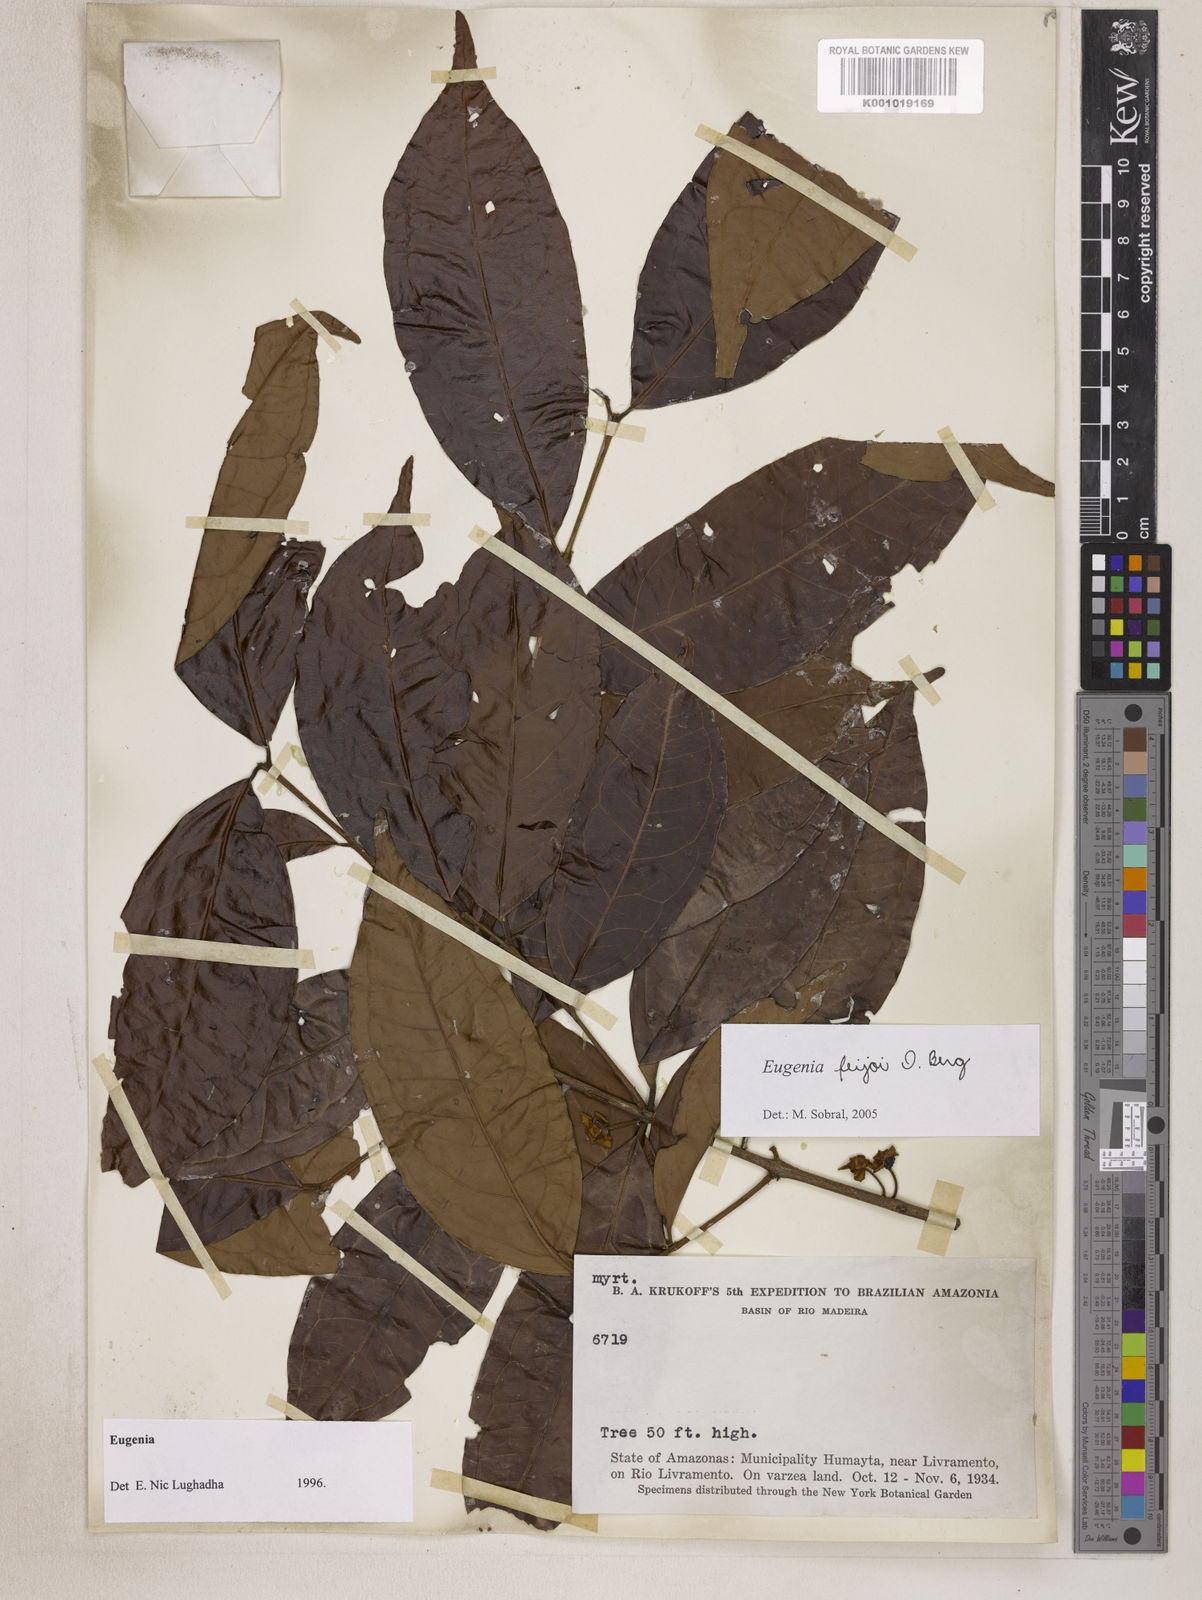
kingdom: Plantae
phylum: Tracheophyta
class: Magnoliopsida
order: Myrtales
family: Myrtaceae
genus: Eugenia
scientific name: Eugenia moschata
